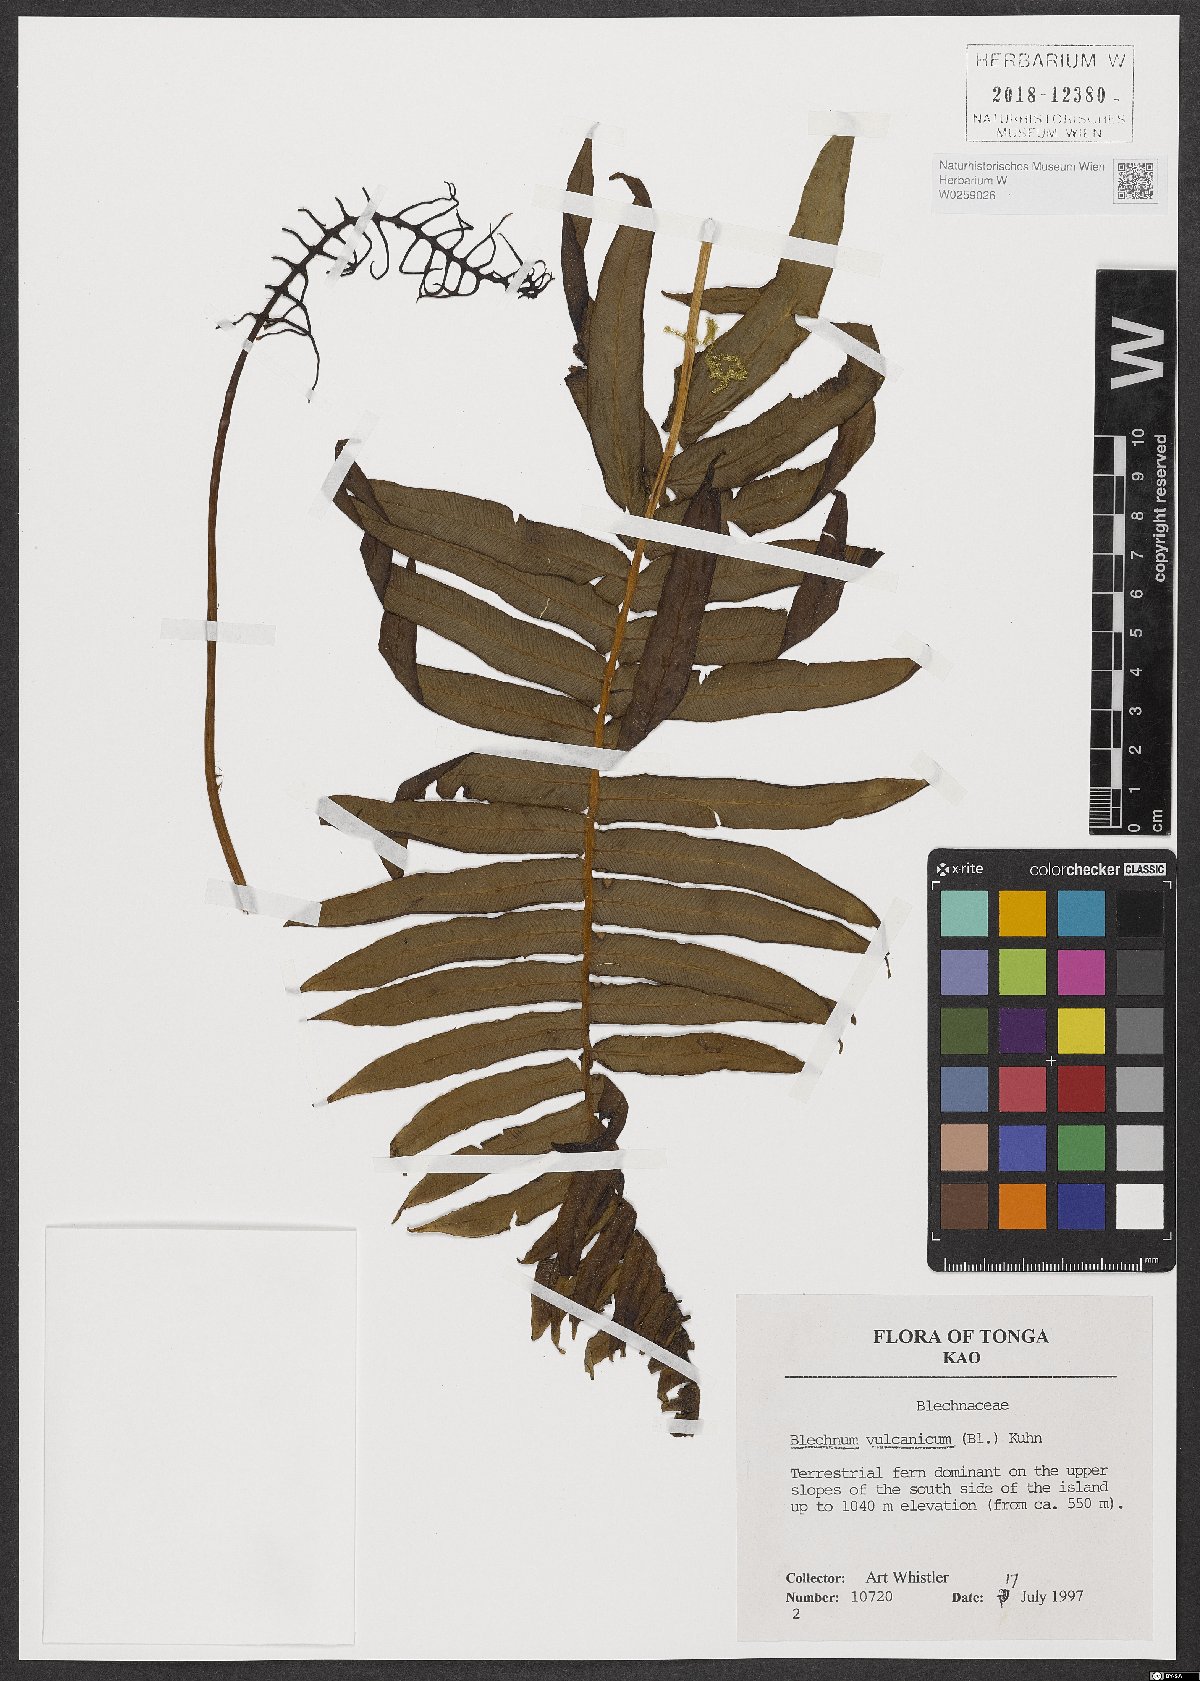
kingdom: Plantae
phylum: Tracheophyta
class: Polypodiopsida
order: Polypodiales
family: Blechnaceae
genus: Cranfillia
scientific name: Cranfillia vulcanica
